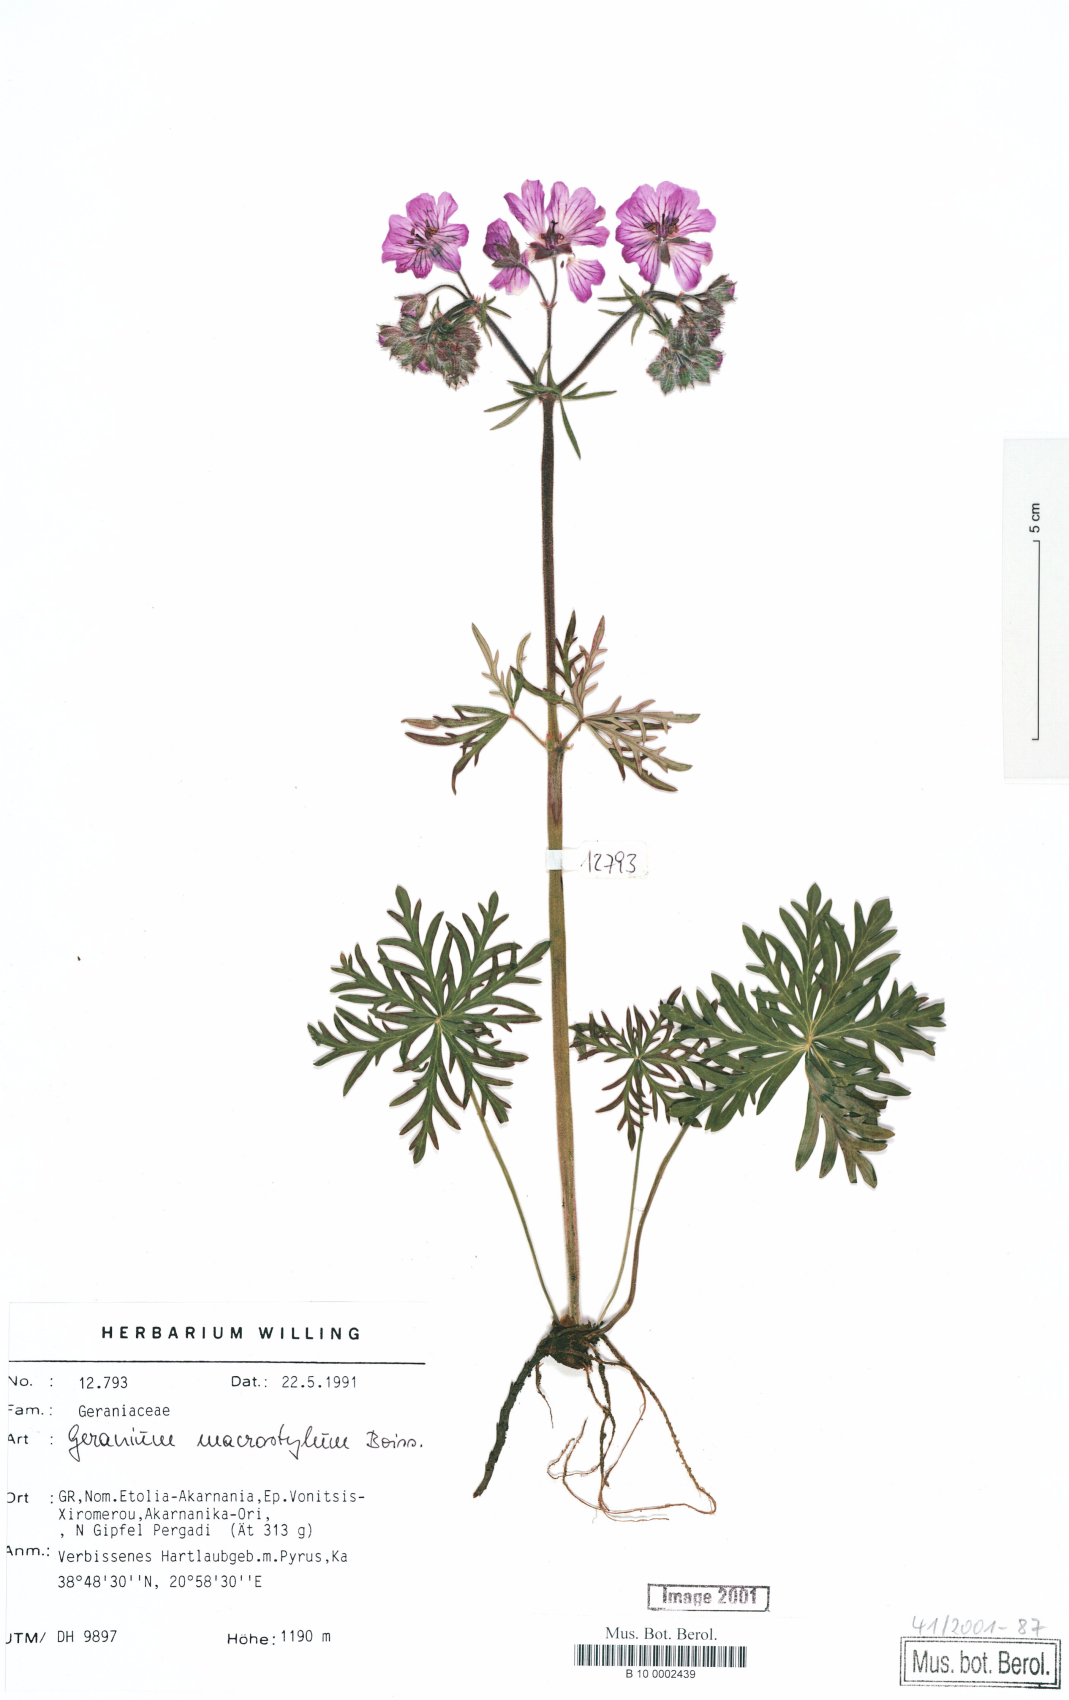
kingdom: Plantae
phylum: Tracheophyta
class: Magnoliopsida
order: Geraniales
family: Geraniaceae
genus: Geranium
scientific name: Geranium macrostylum
